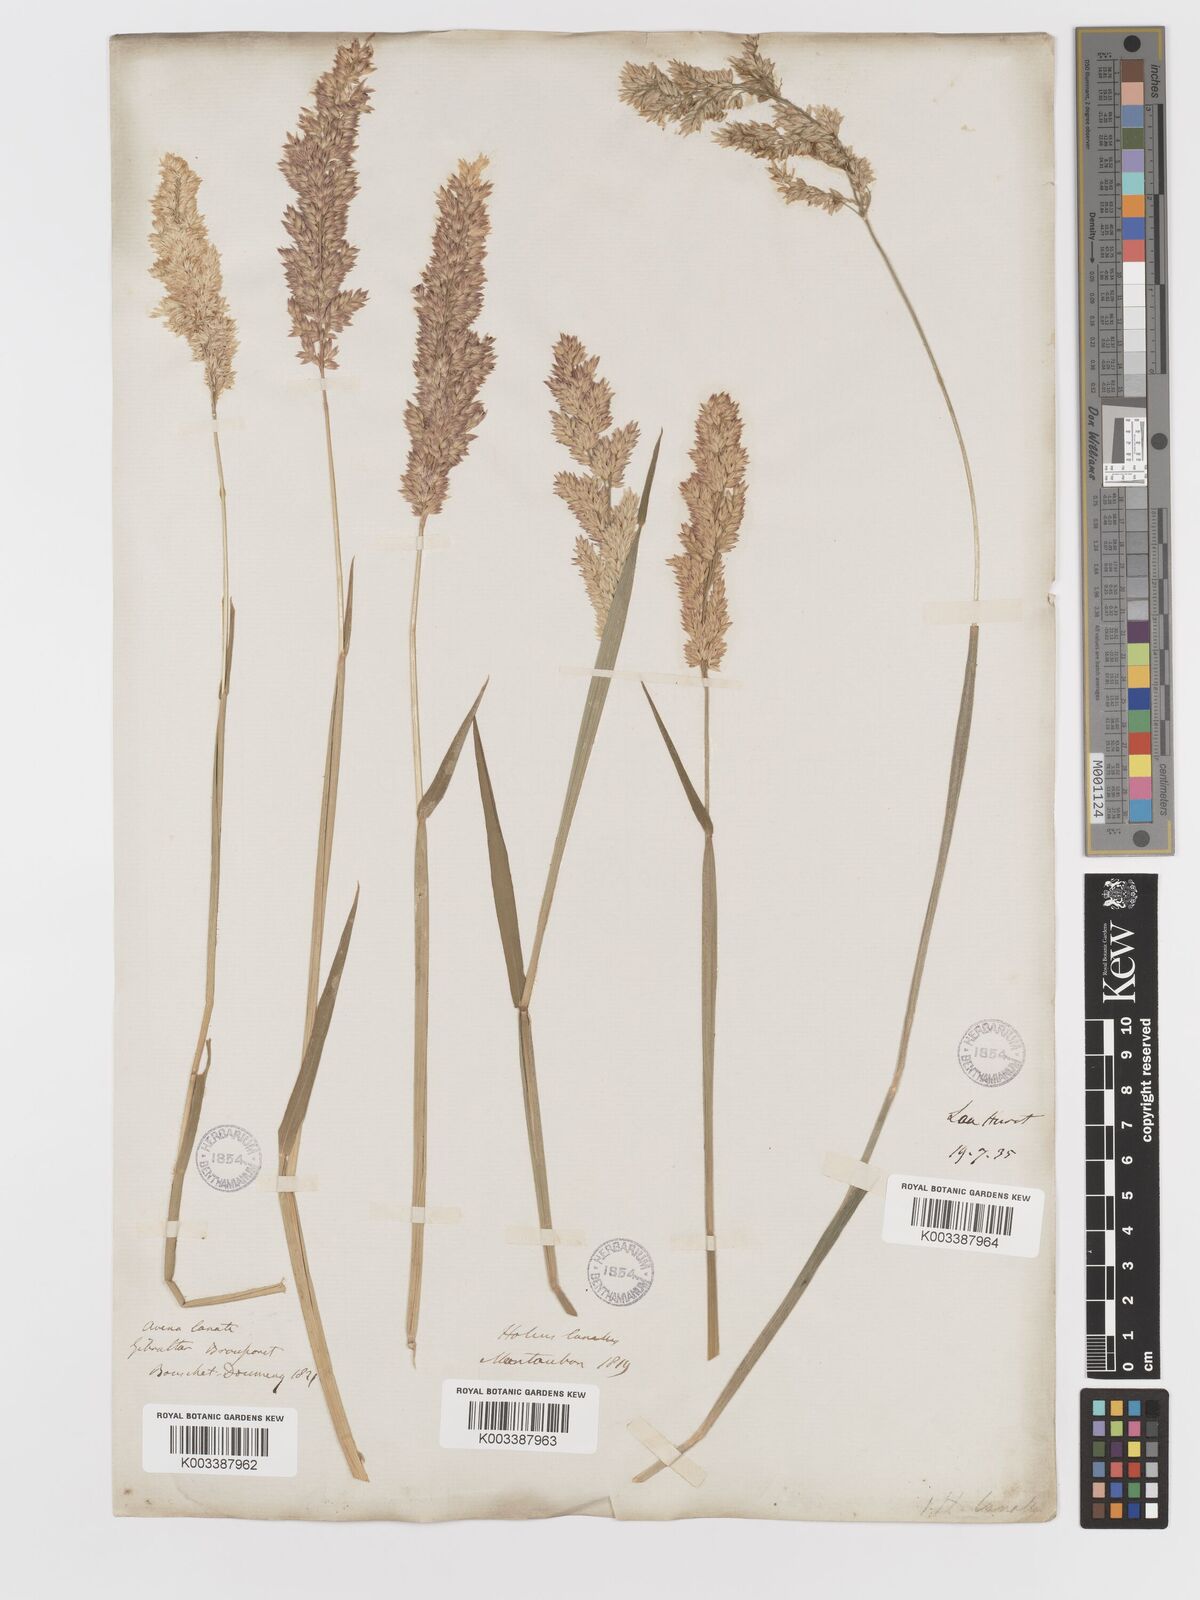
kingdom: Plantae
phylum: Tracheophyta
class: Liliopsida
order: Poales
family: Poaceae
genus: Holcus
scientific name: Holcus lanatus
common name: Yorkshire-fog
